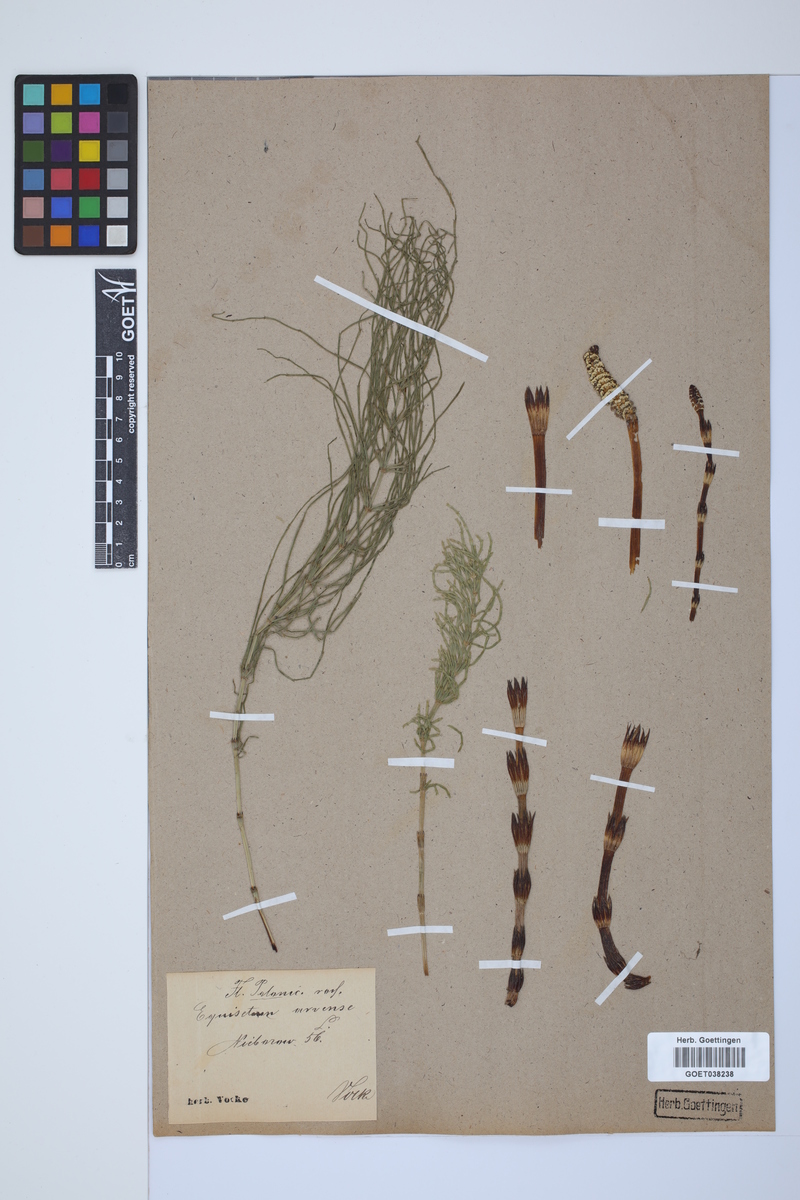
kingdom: Plantae
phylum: Tracheophyta
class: Polypodiopsida
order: Equisetales
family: Equisetaceae
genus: Equisetum
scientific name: Equisetum arvense
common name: Field horsetail
